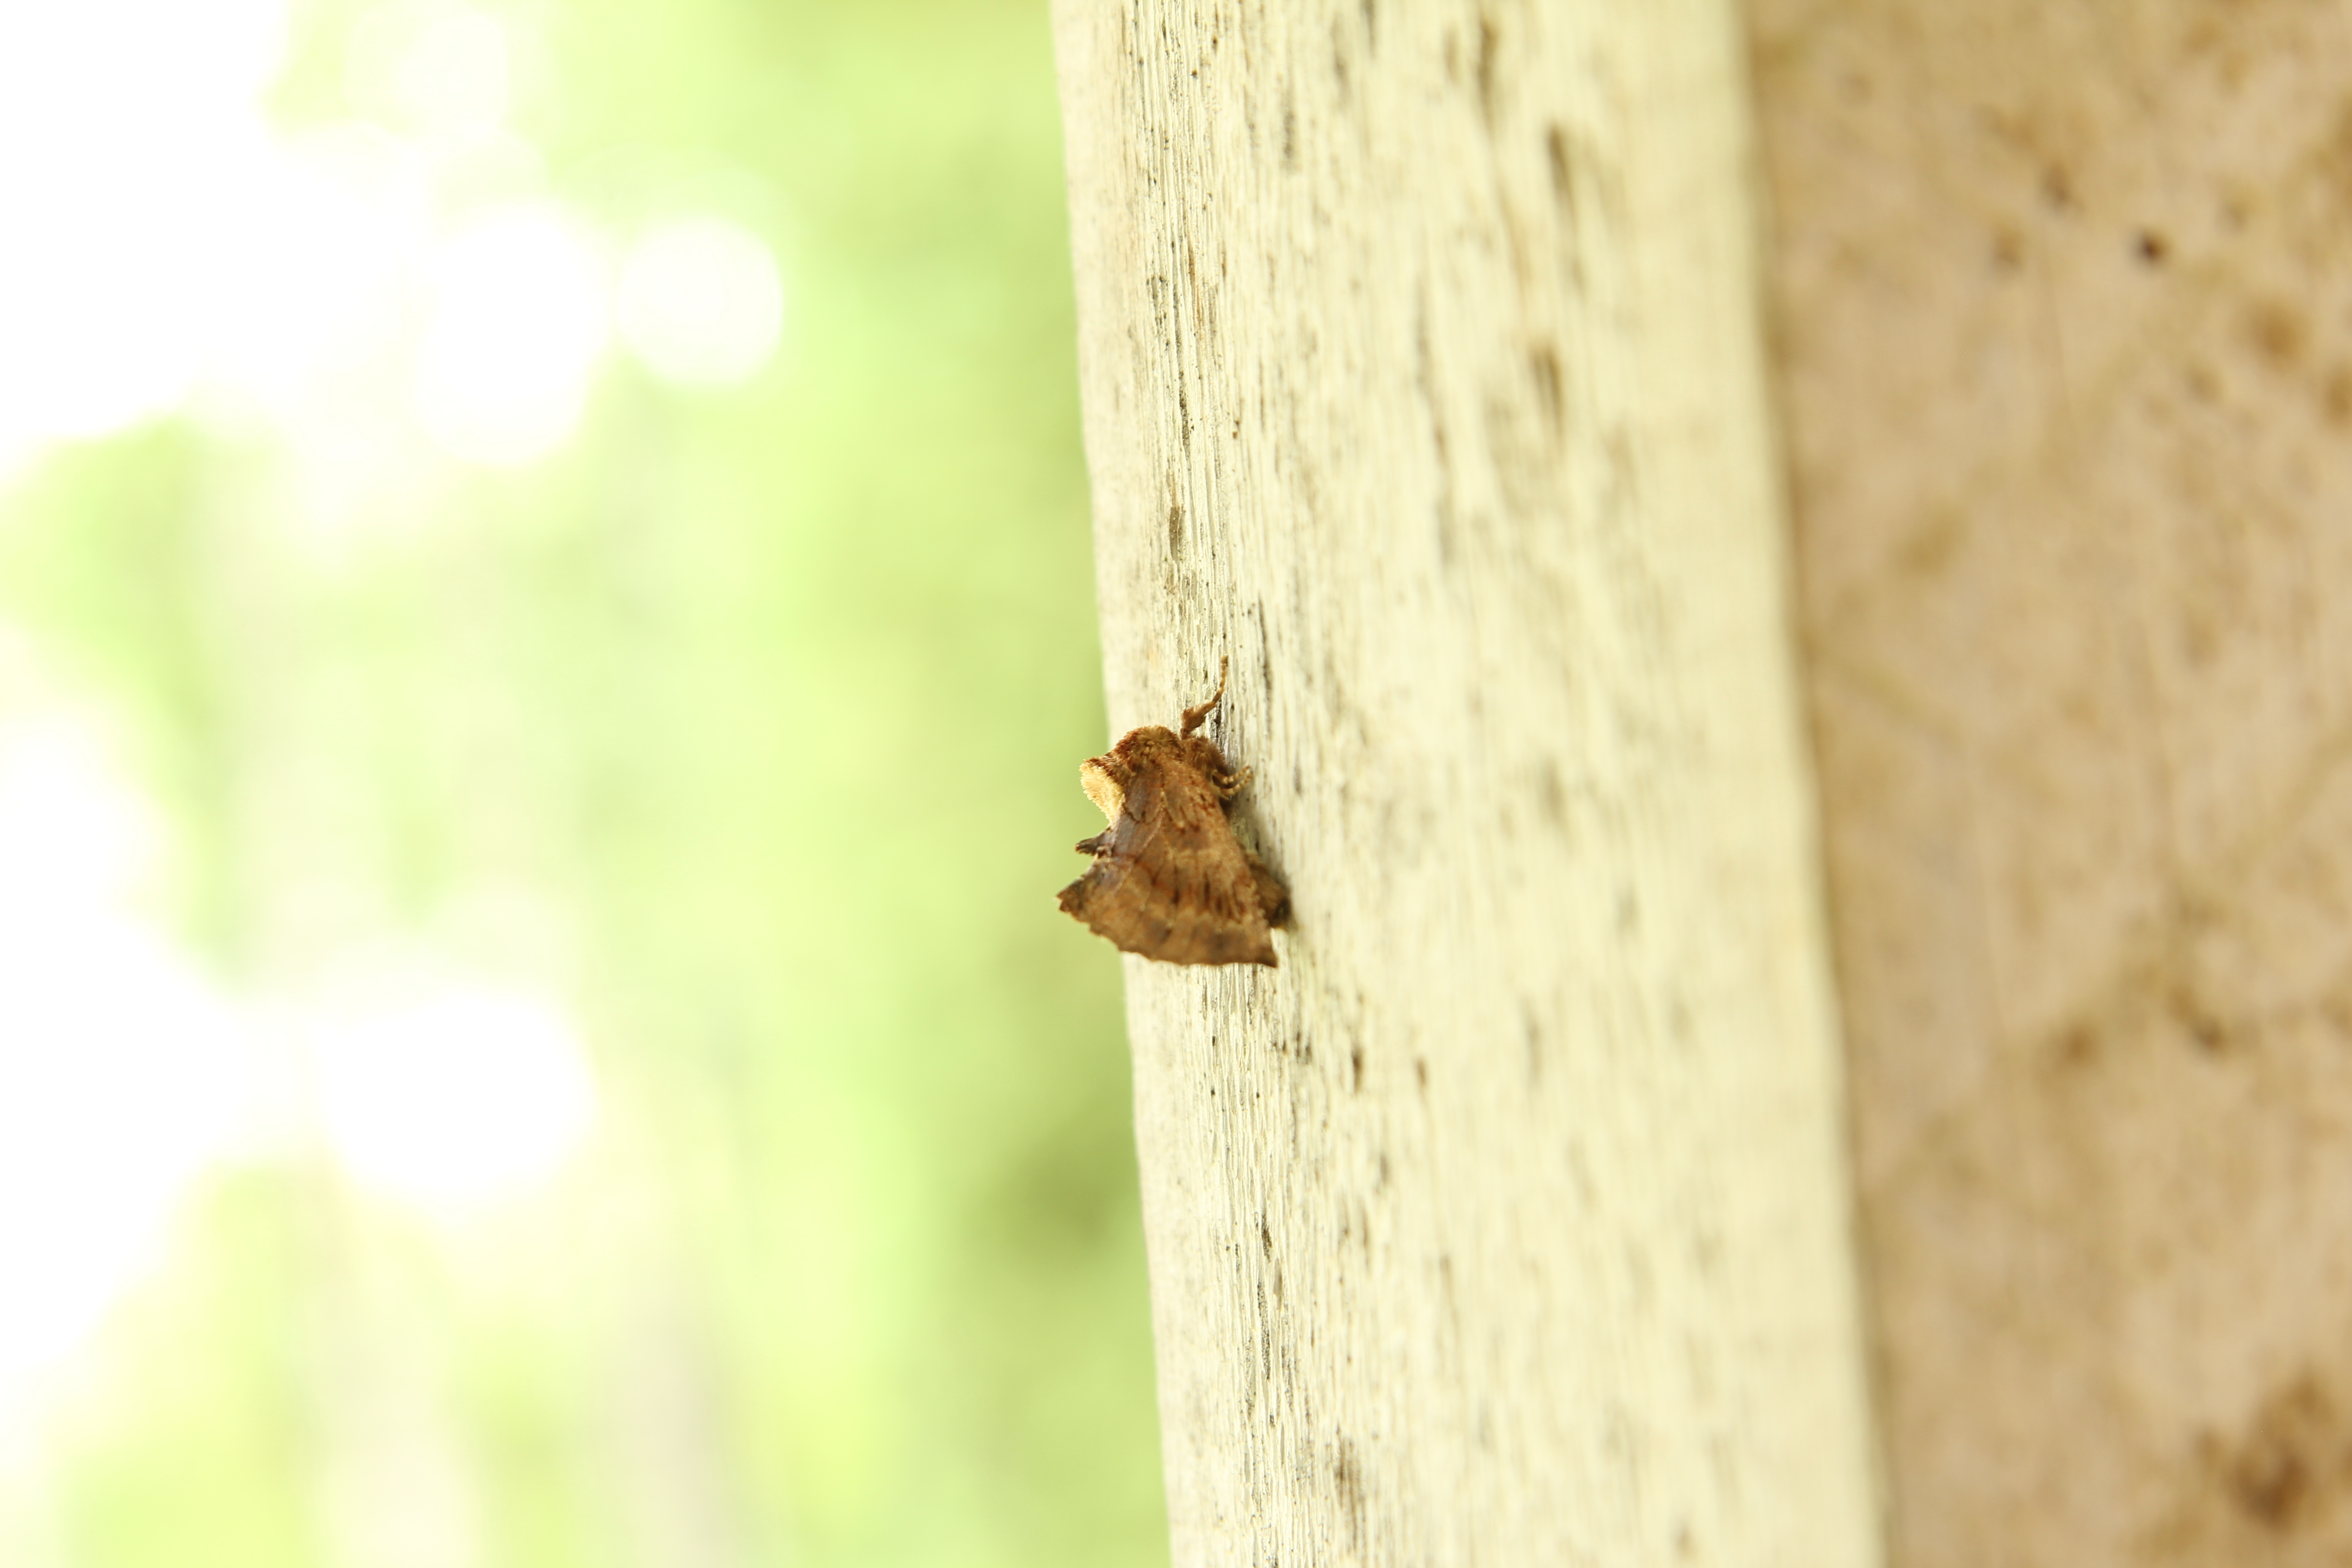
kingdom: Animalia
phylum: Arthropoda
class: Insecta
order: Lepidoptera
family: Notodontidae
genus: Ptilodon
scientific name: Ptilodon capucina
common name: Coxcomb prominent
